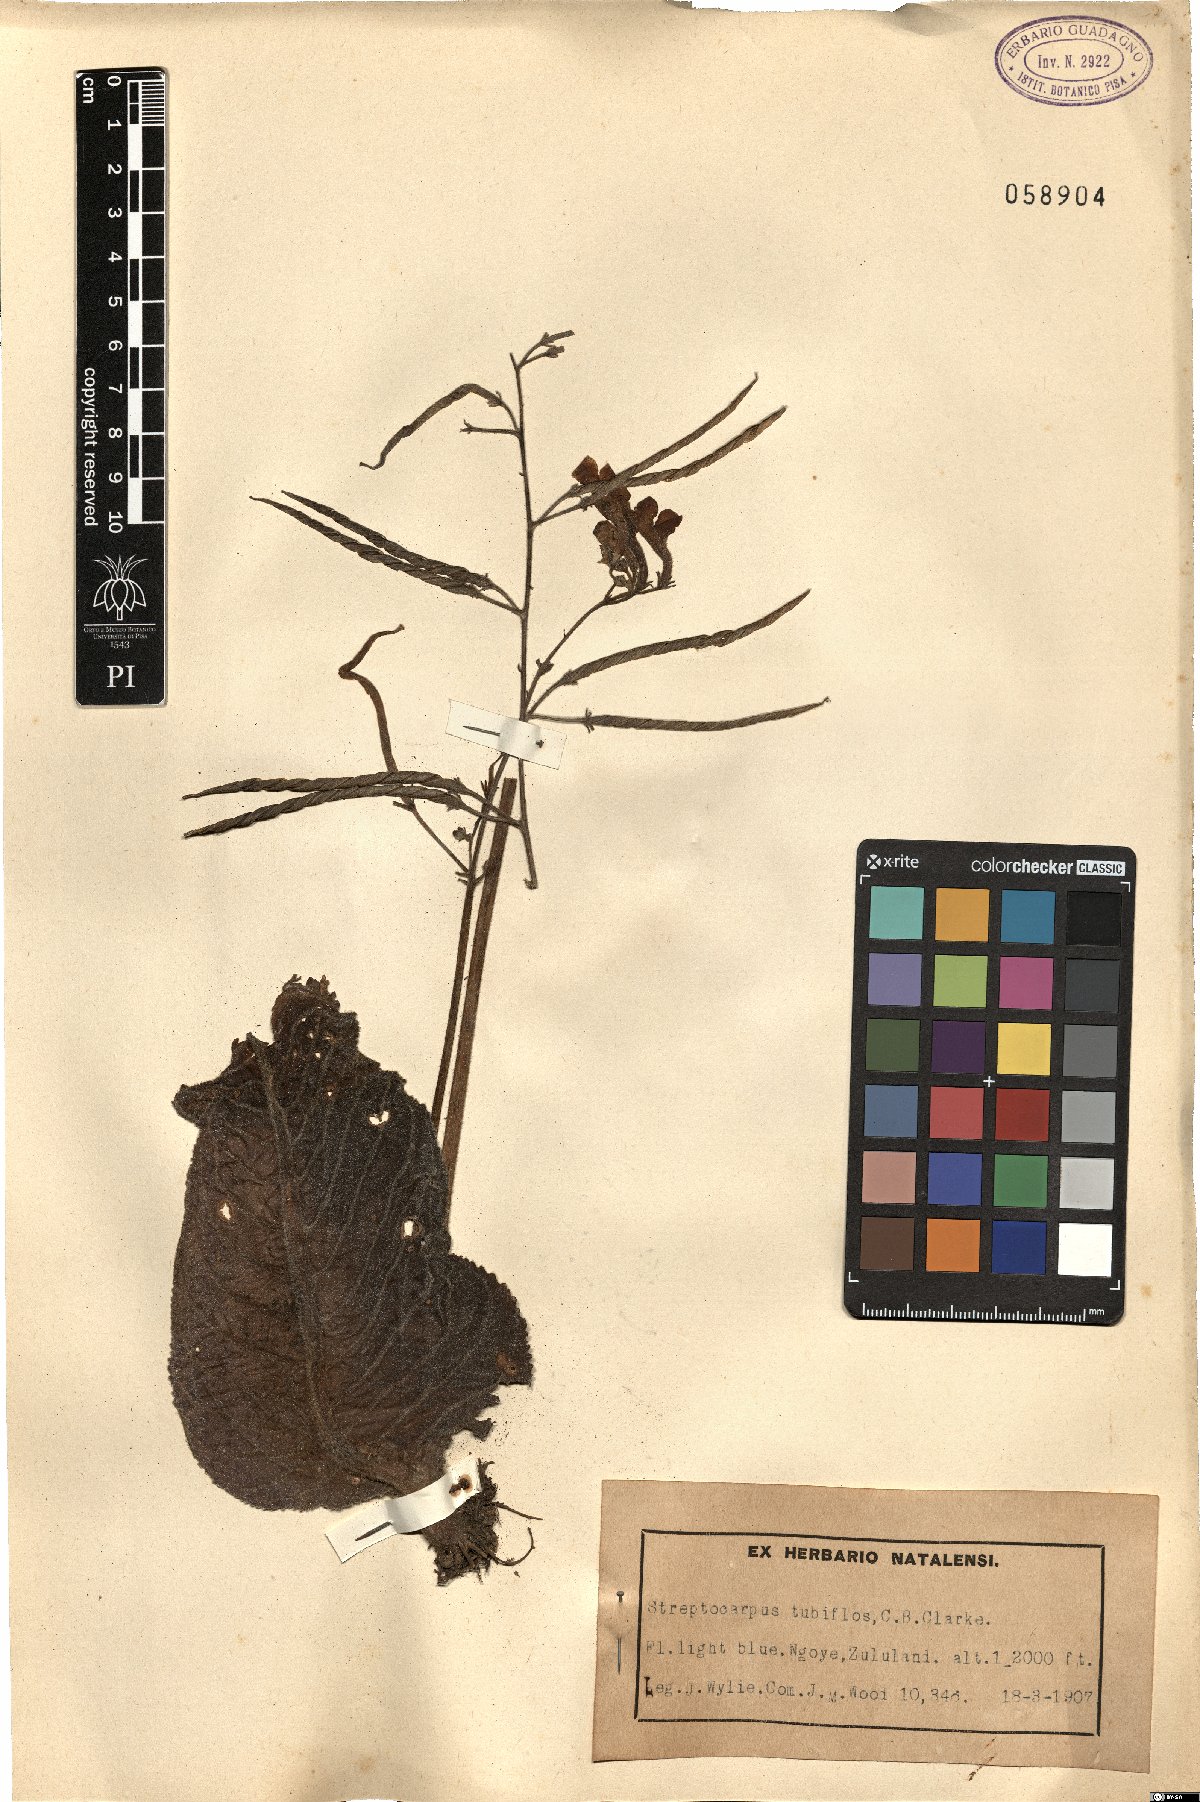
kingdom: Plantae
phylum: Tracheophyta
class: Magnoliopsida
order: Lamiales
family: Gesneriaceae
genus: Streptocarpus
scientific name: Streptocarpus saundersii
